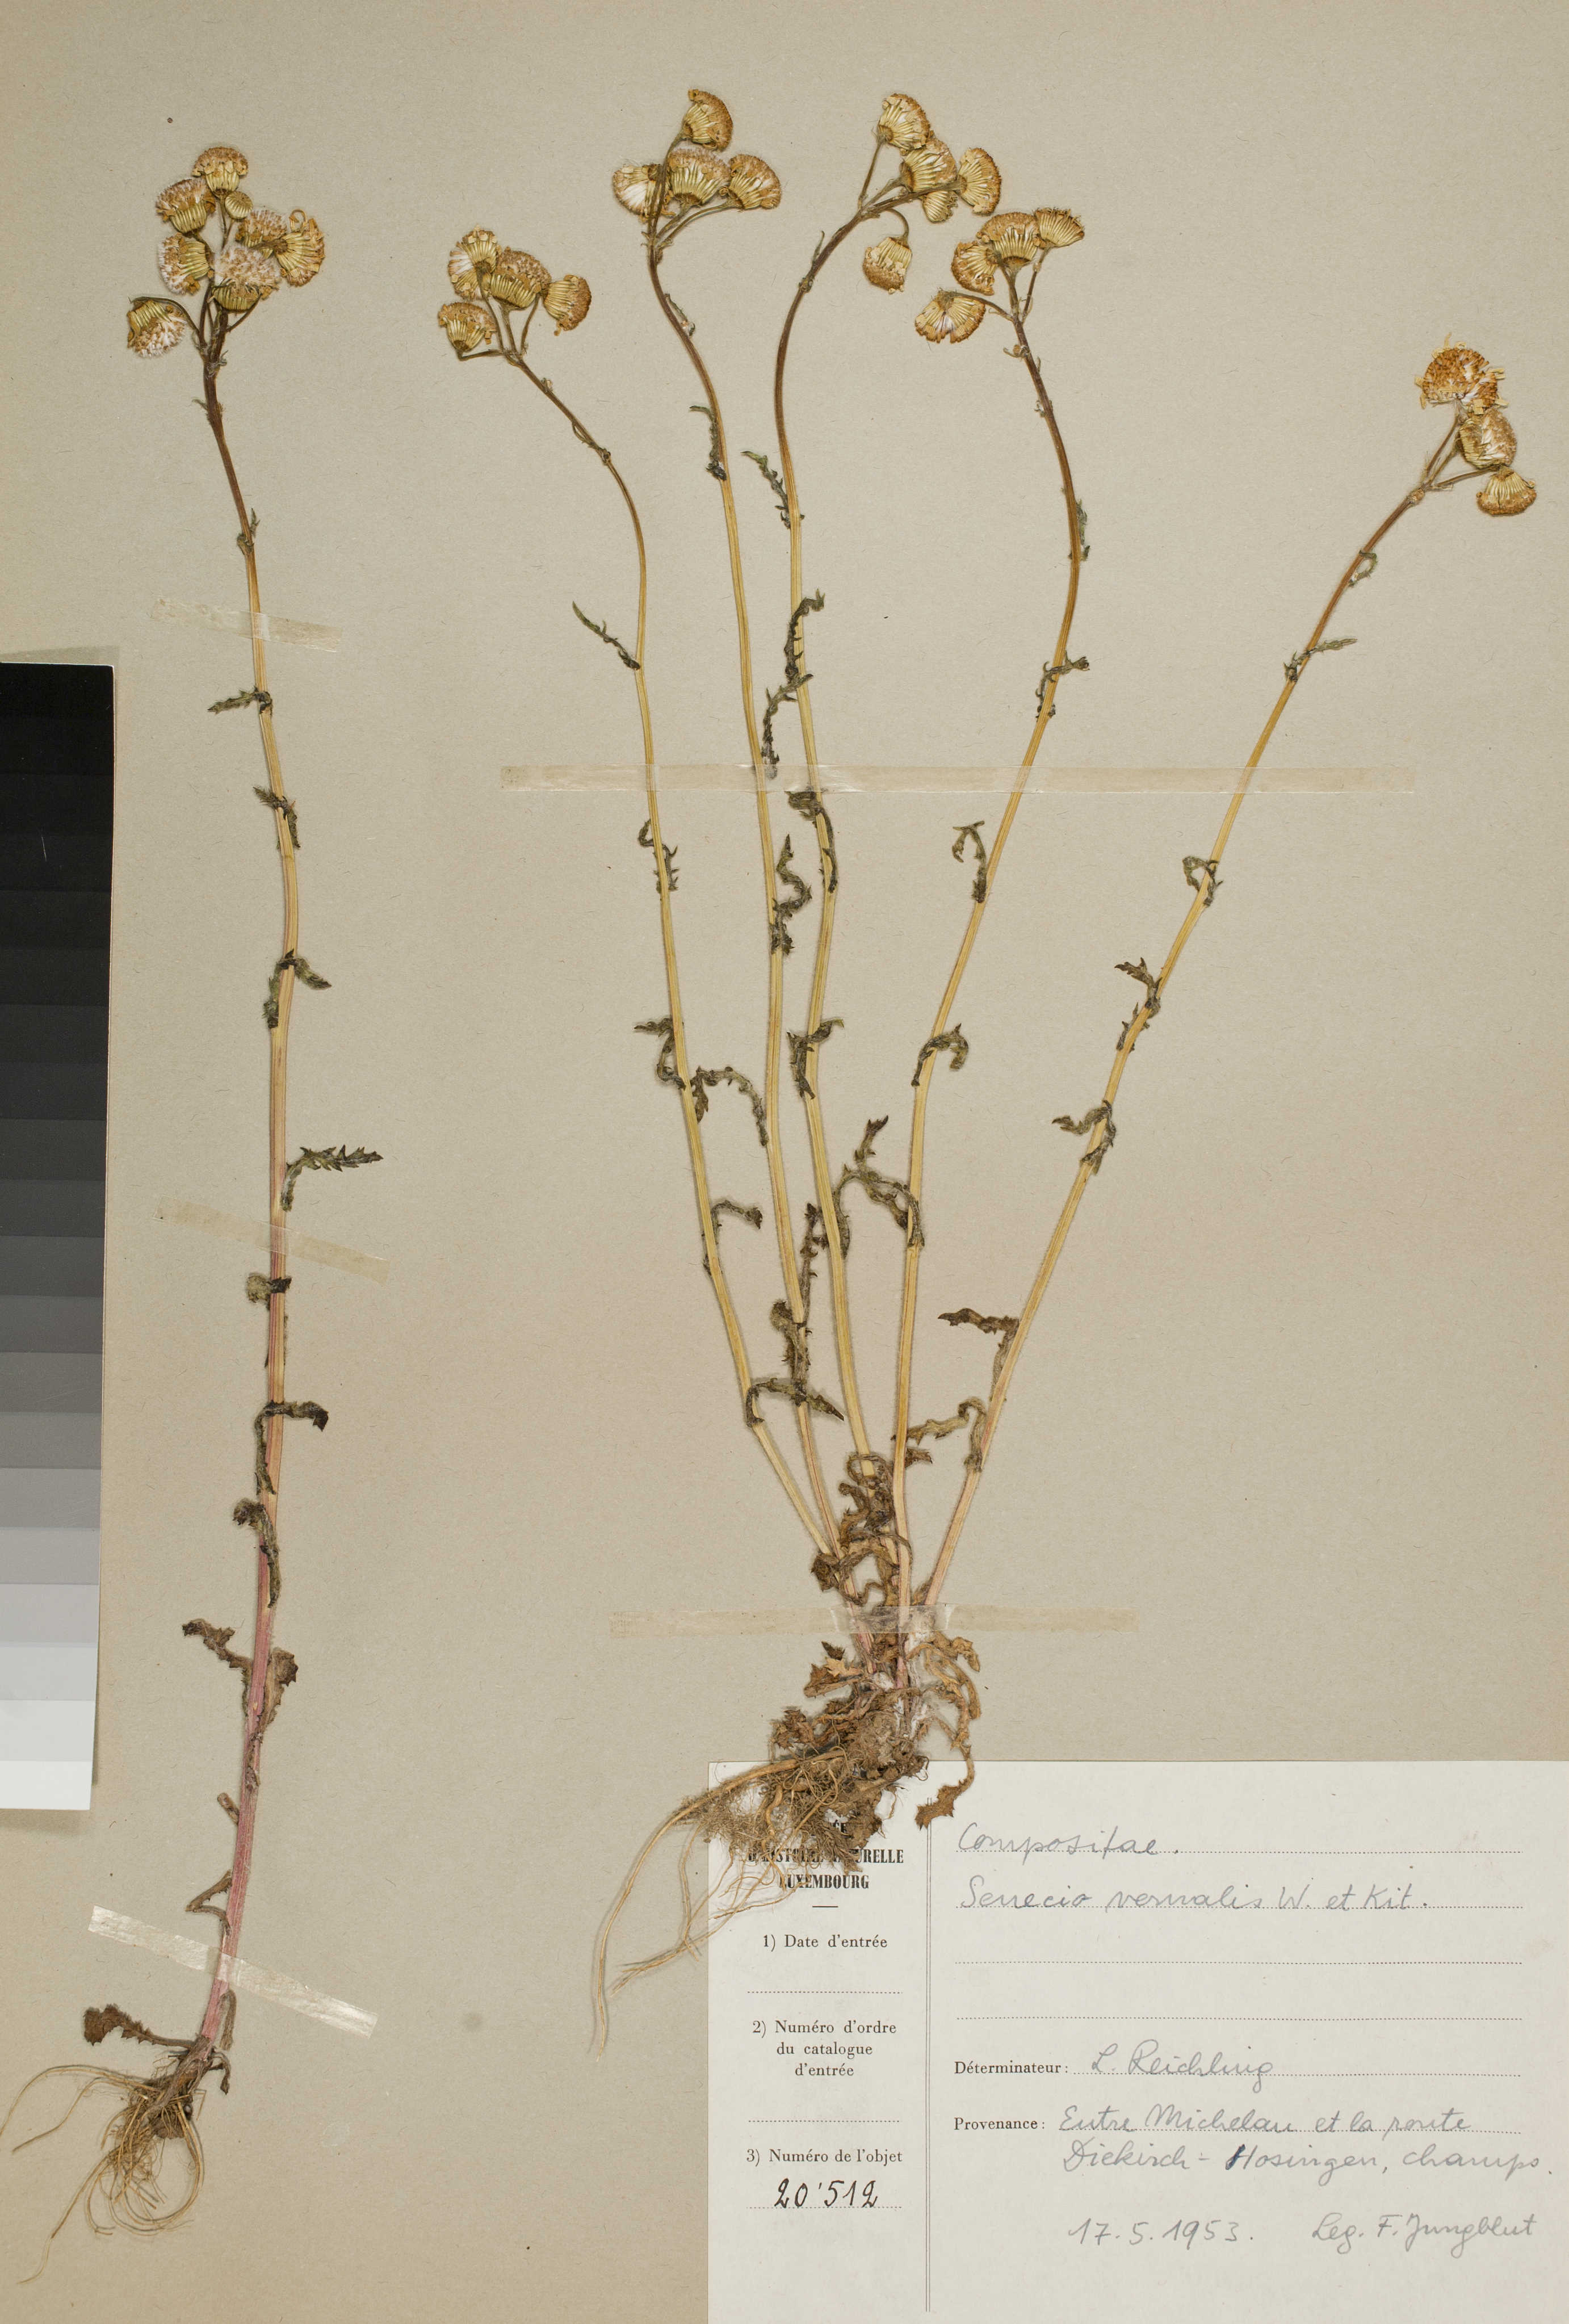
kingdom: Plantae
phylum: Tracheophyta
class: Magnoliopsida
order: Asterales
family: Asteraceae
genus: Senecio
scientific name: Senecio vernalis
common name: Eastern groundsel
